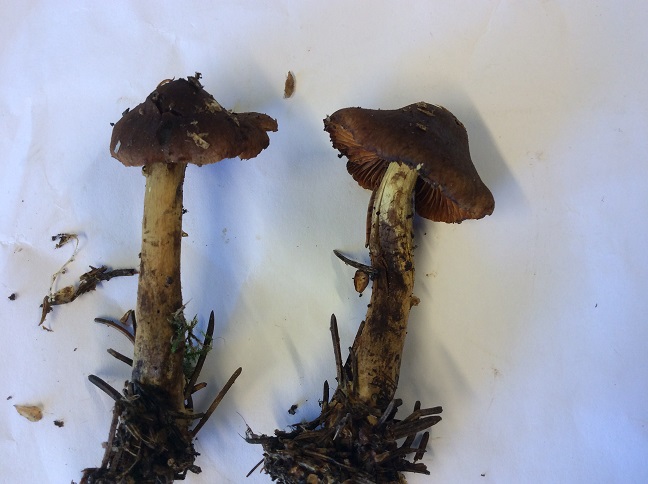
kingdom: Fungi
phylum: Basidiomycota
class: Agaricomycetes
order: Agaricales
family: Cortinariaceae
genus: Cortinarius
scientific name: Cortinarius purpureus
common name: brunrød slørhat
